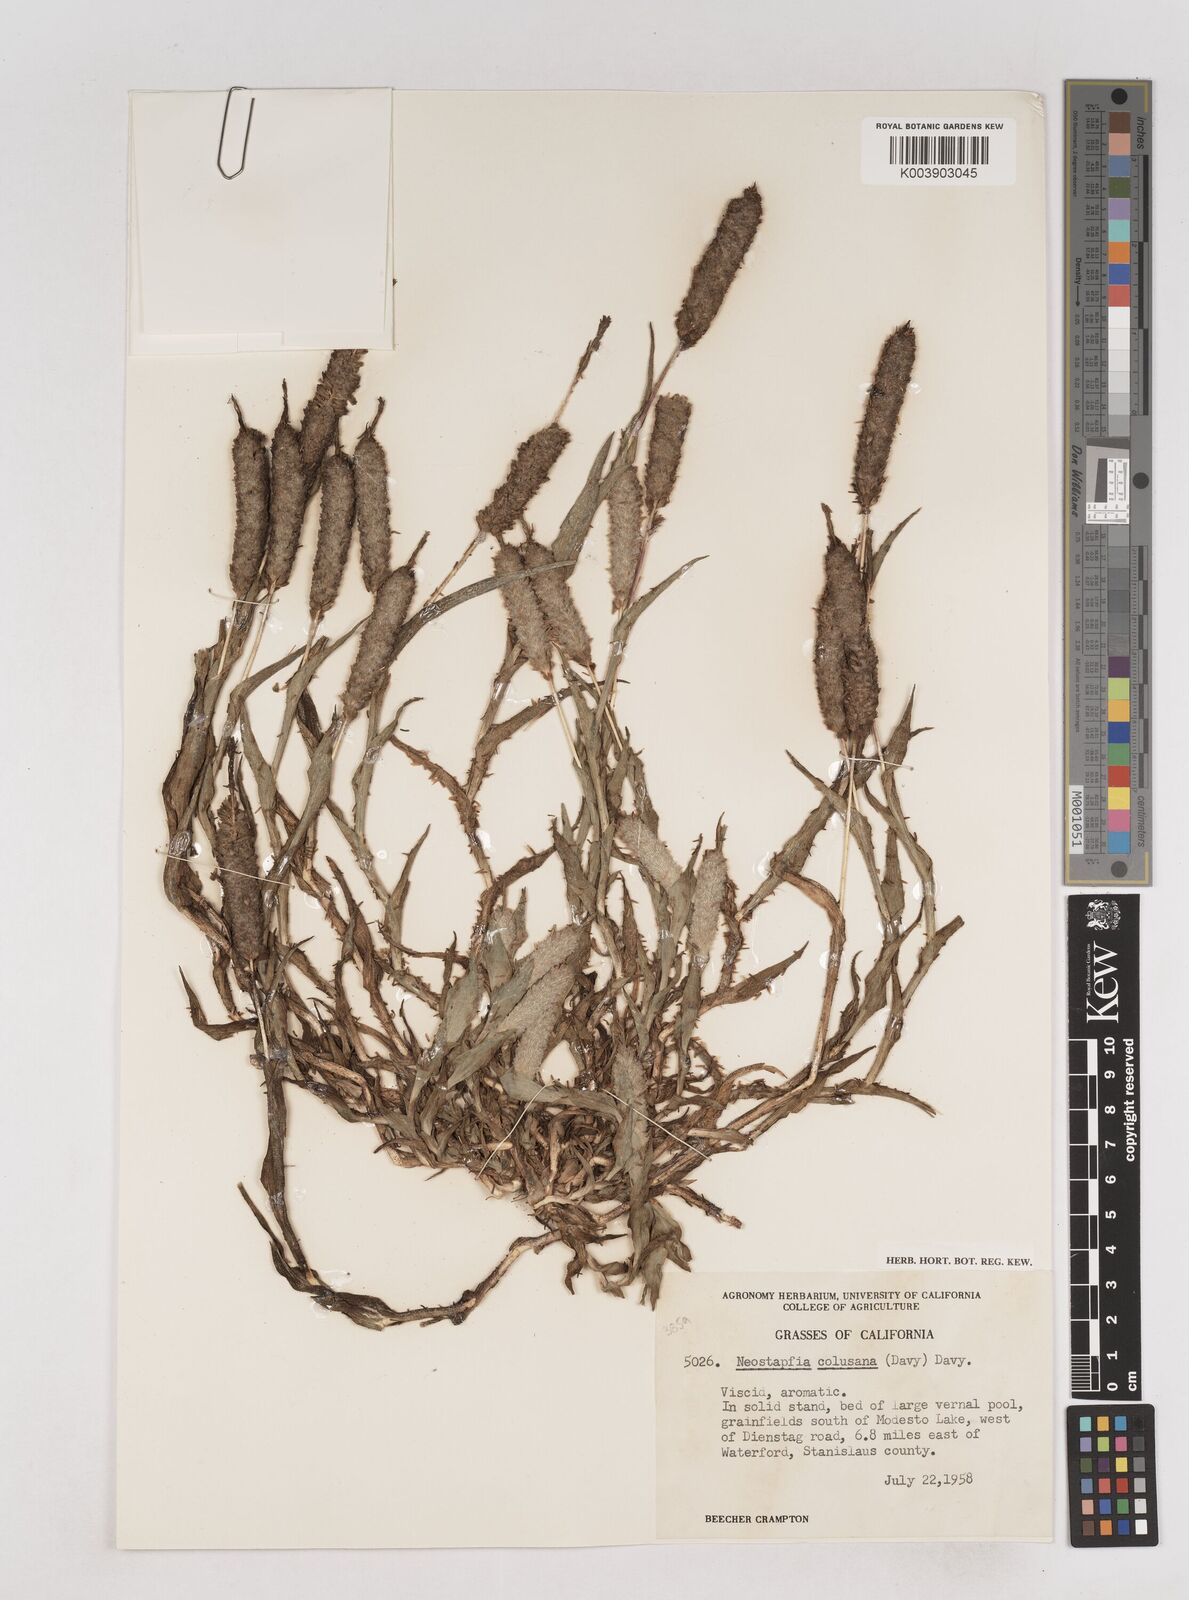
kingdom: Plantae
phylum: Tracheophyta
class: Liliopsida
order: Poales
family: Poaceae
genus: Neostapfia
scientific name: Neostapfia colusana
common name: Colusa grass
